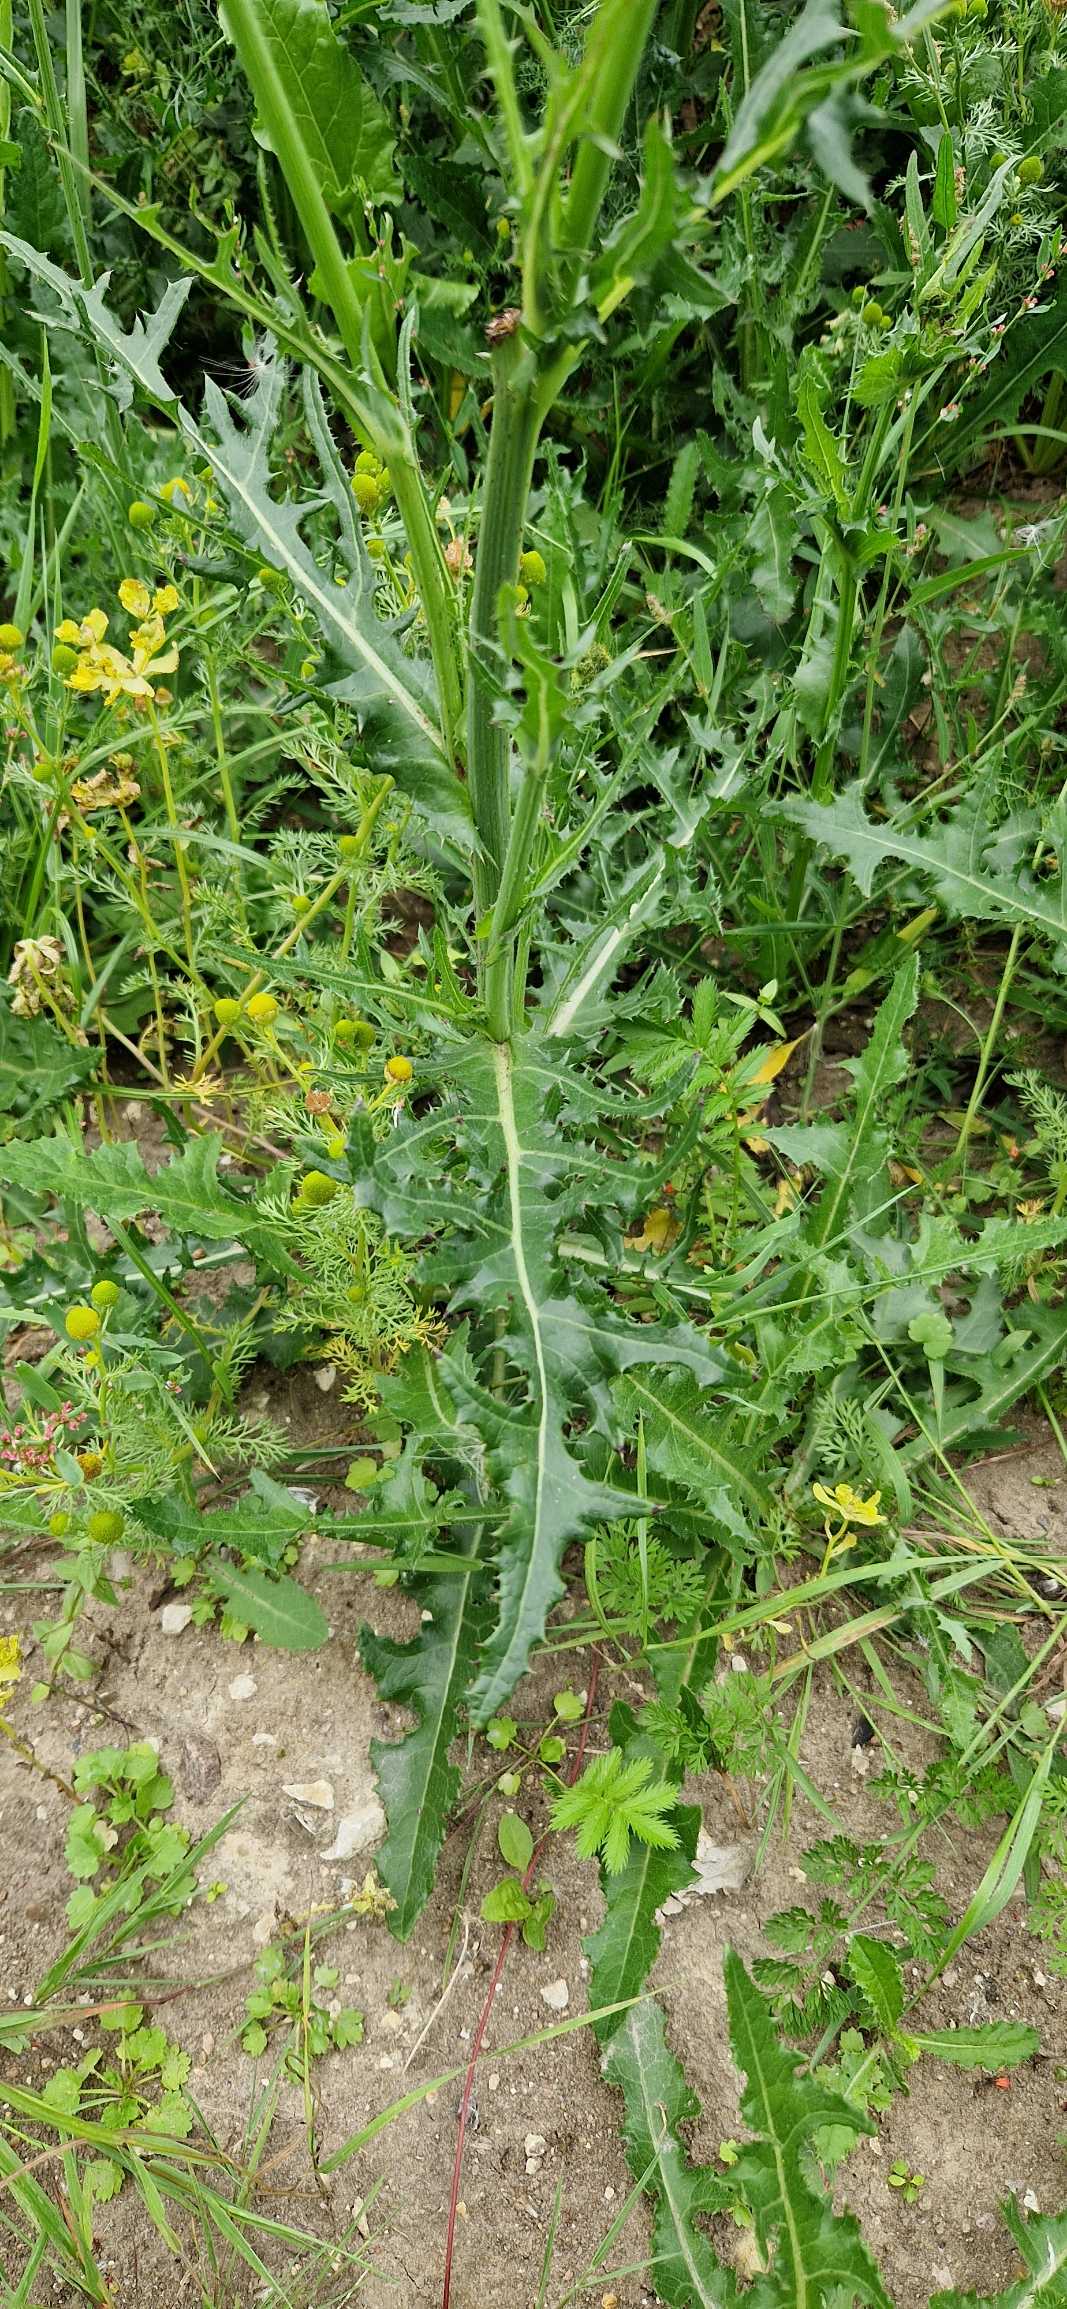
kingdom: Plantae
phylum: Tracheophyta
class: Magnoliopsida
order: Asterales
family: Asteraceae
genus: Sonchus
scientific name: Sonchus arvensis
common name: Ager-svinemælk
